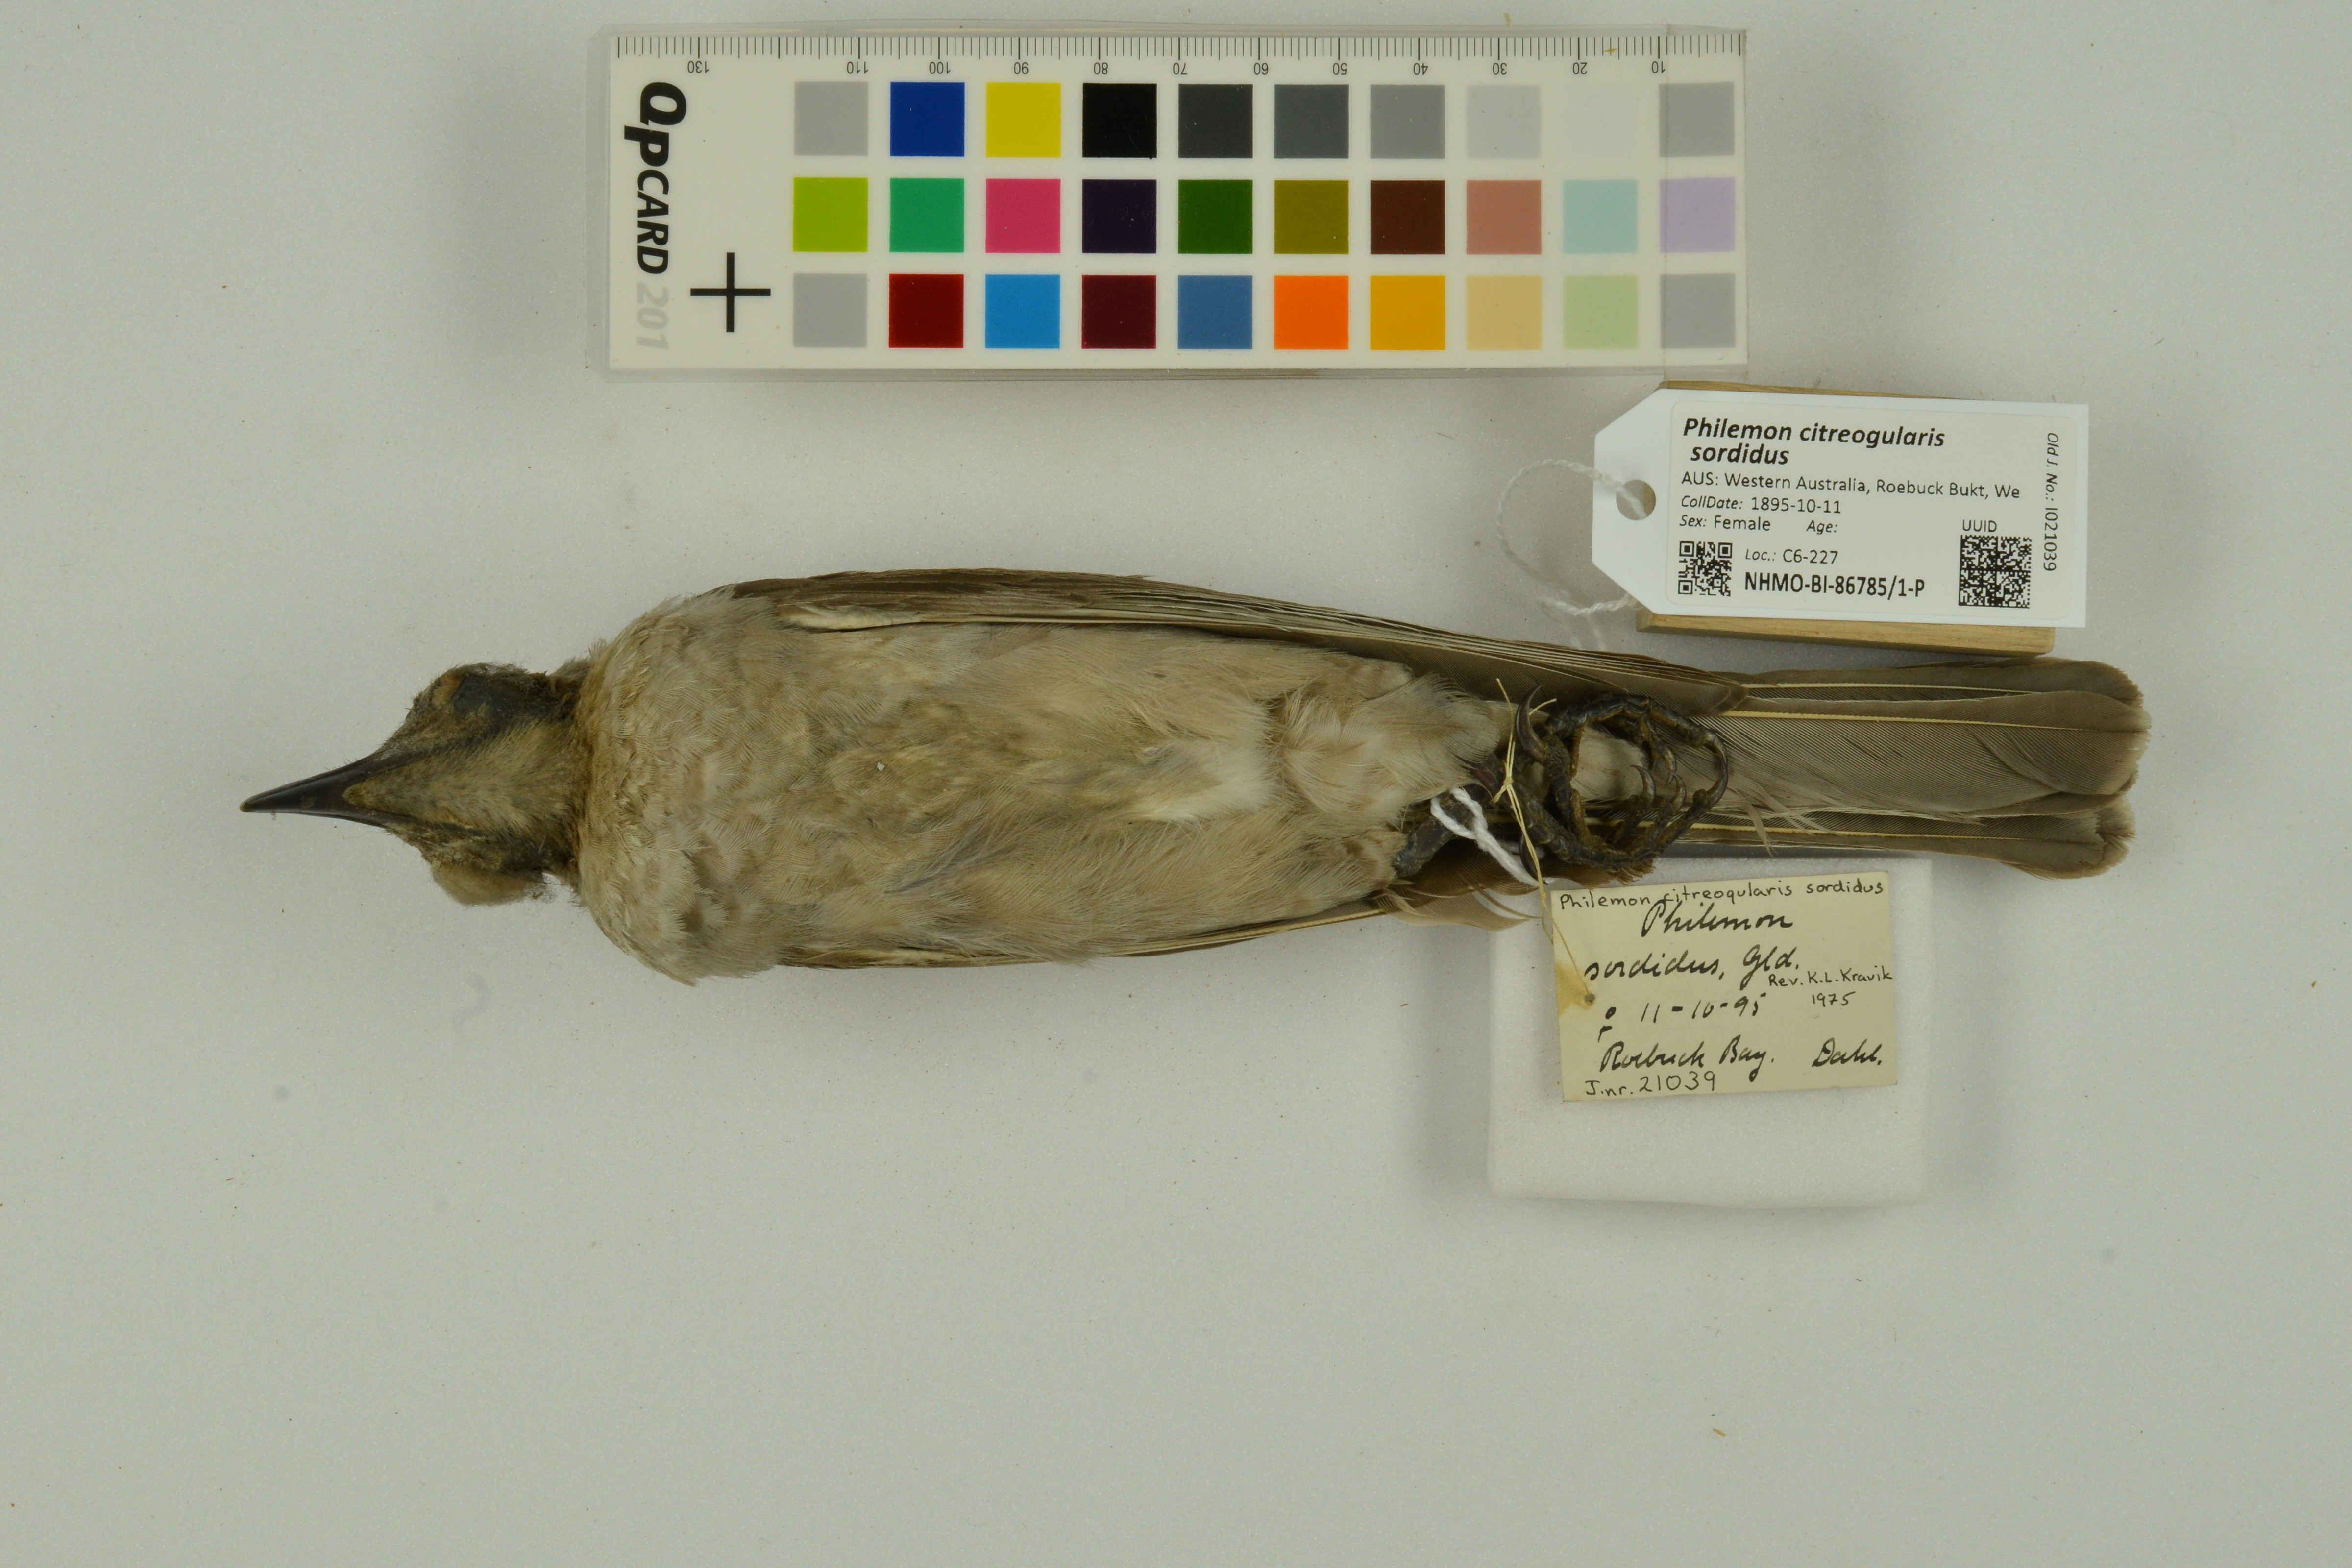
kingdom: Animalia
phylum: Chordata
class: Aves
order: Passeriformes
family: Meliphagidae
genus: Philemon
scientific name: Philemon citreogularis
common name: Little friarbird
